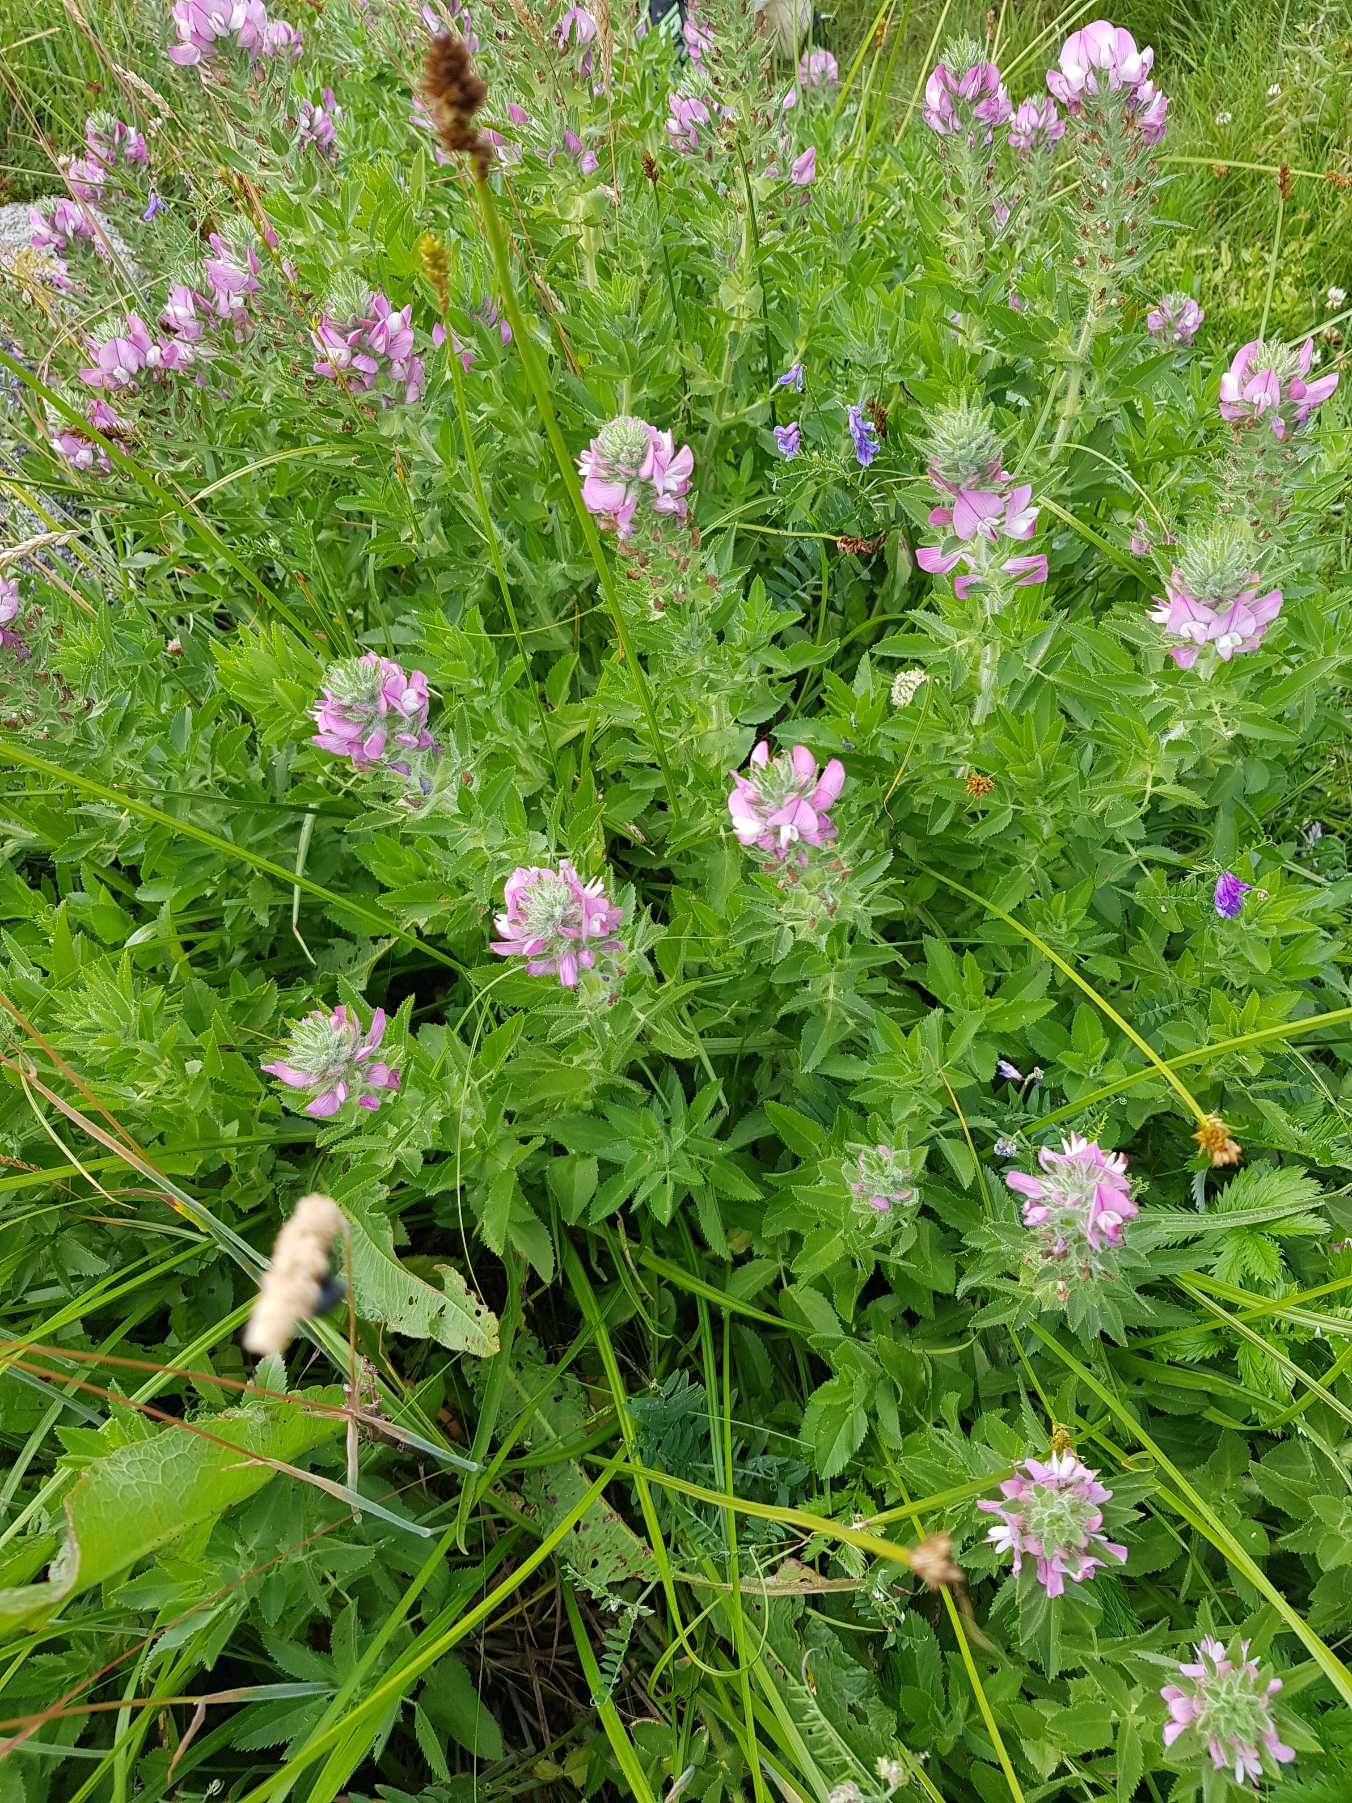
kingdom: Plantae
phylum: Tracheophyta
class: Magnoliopsida
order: Fabales
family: Fabaceae
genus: Ononis
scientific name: Ononis arvensis
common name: Stinkende krageklo
